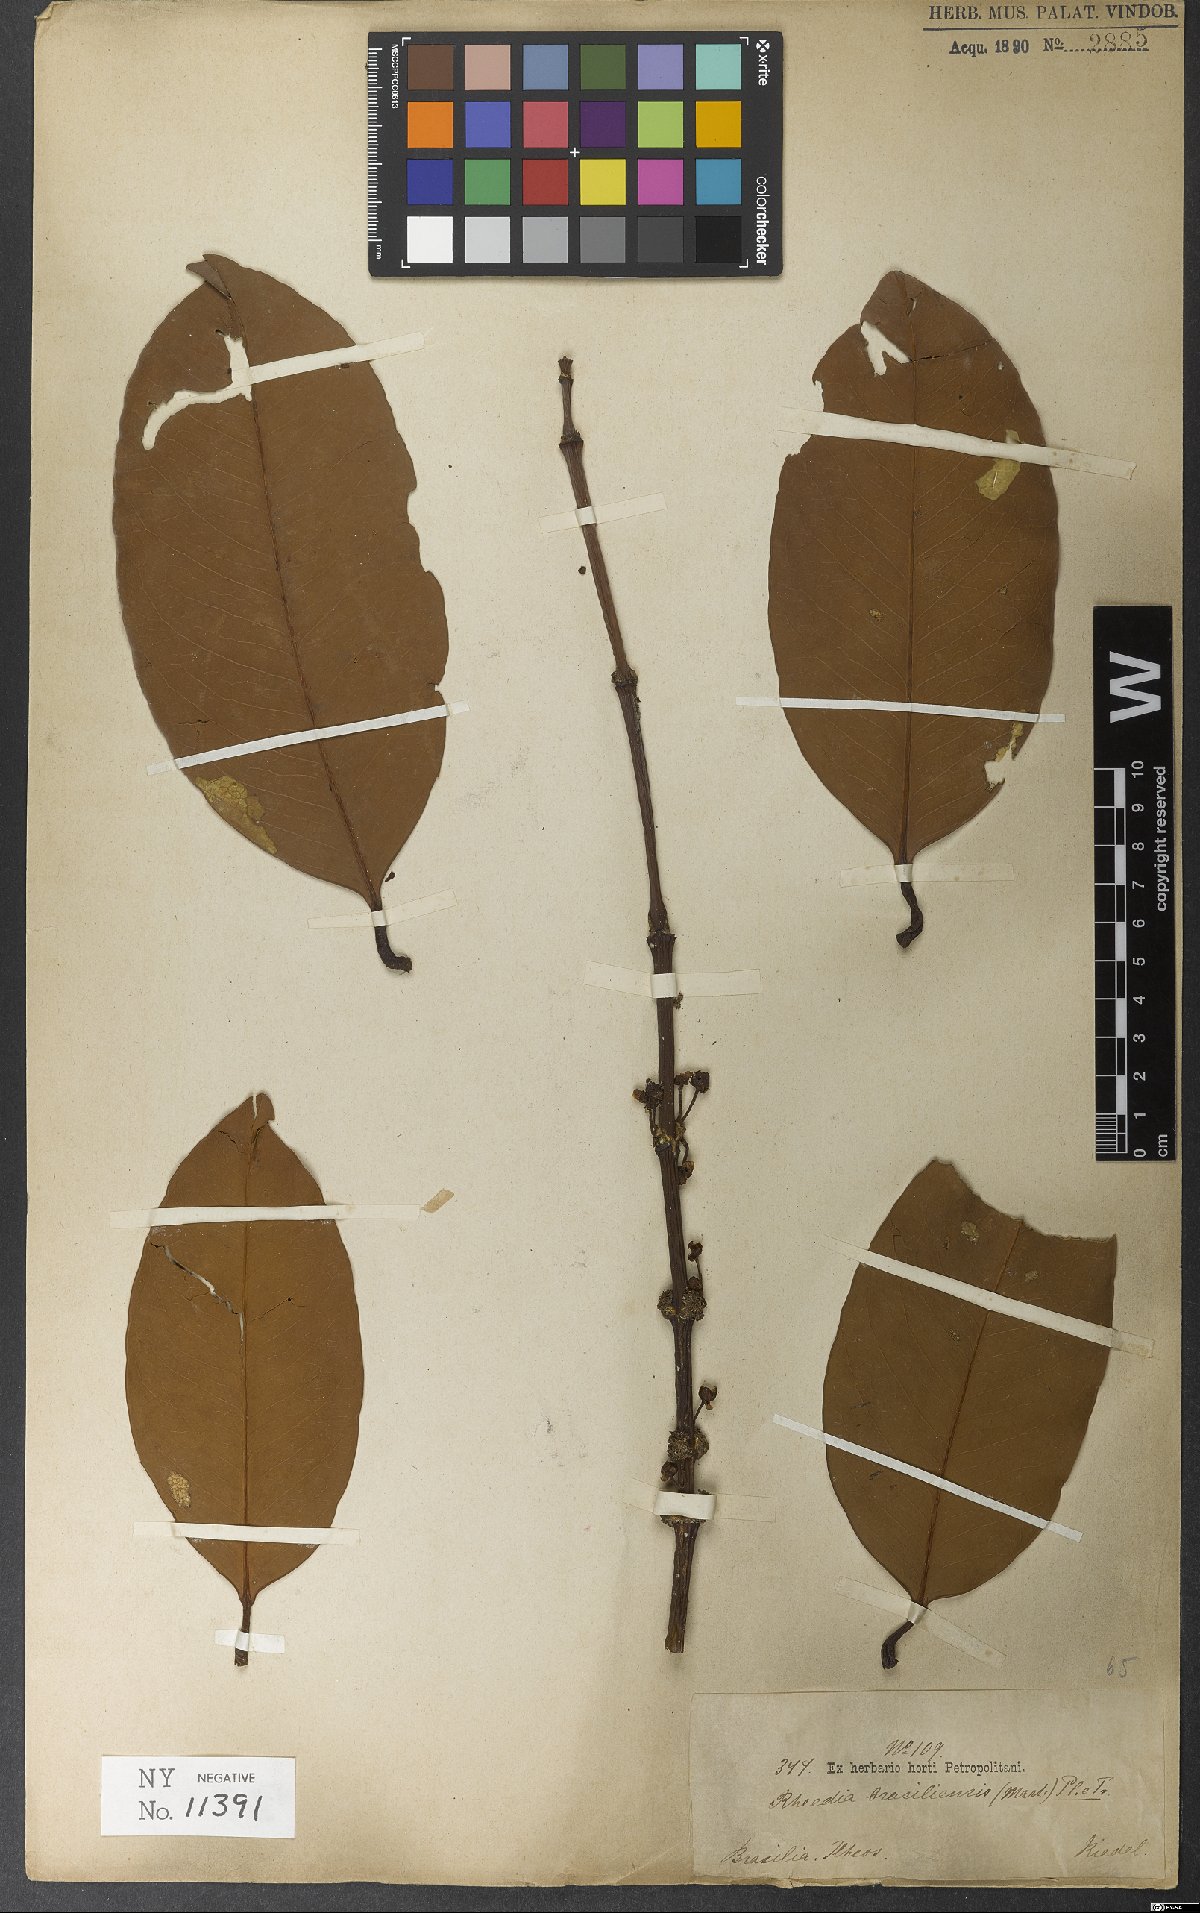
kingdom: Plantae
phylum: Tracheophyta
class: Magnoliopsida
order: Malpighiales
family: Clusiaceae
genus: Garcinia
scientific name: Garcinia brasiliensis
